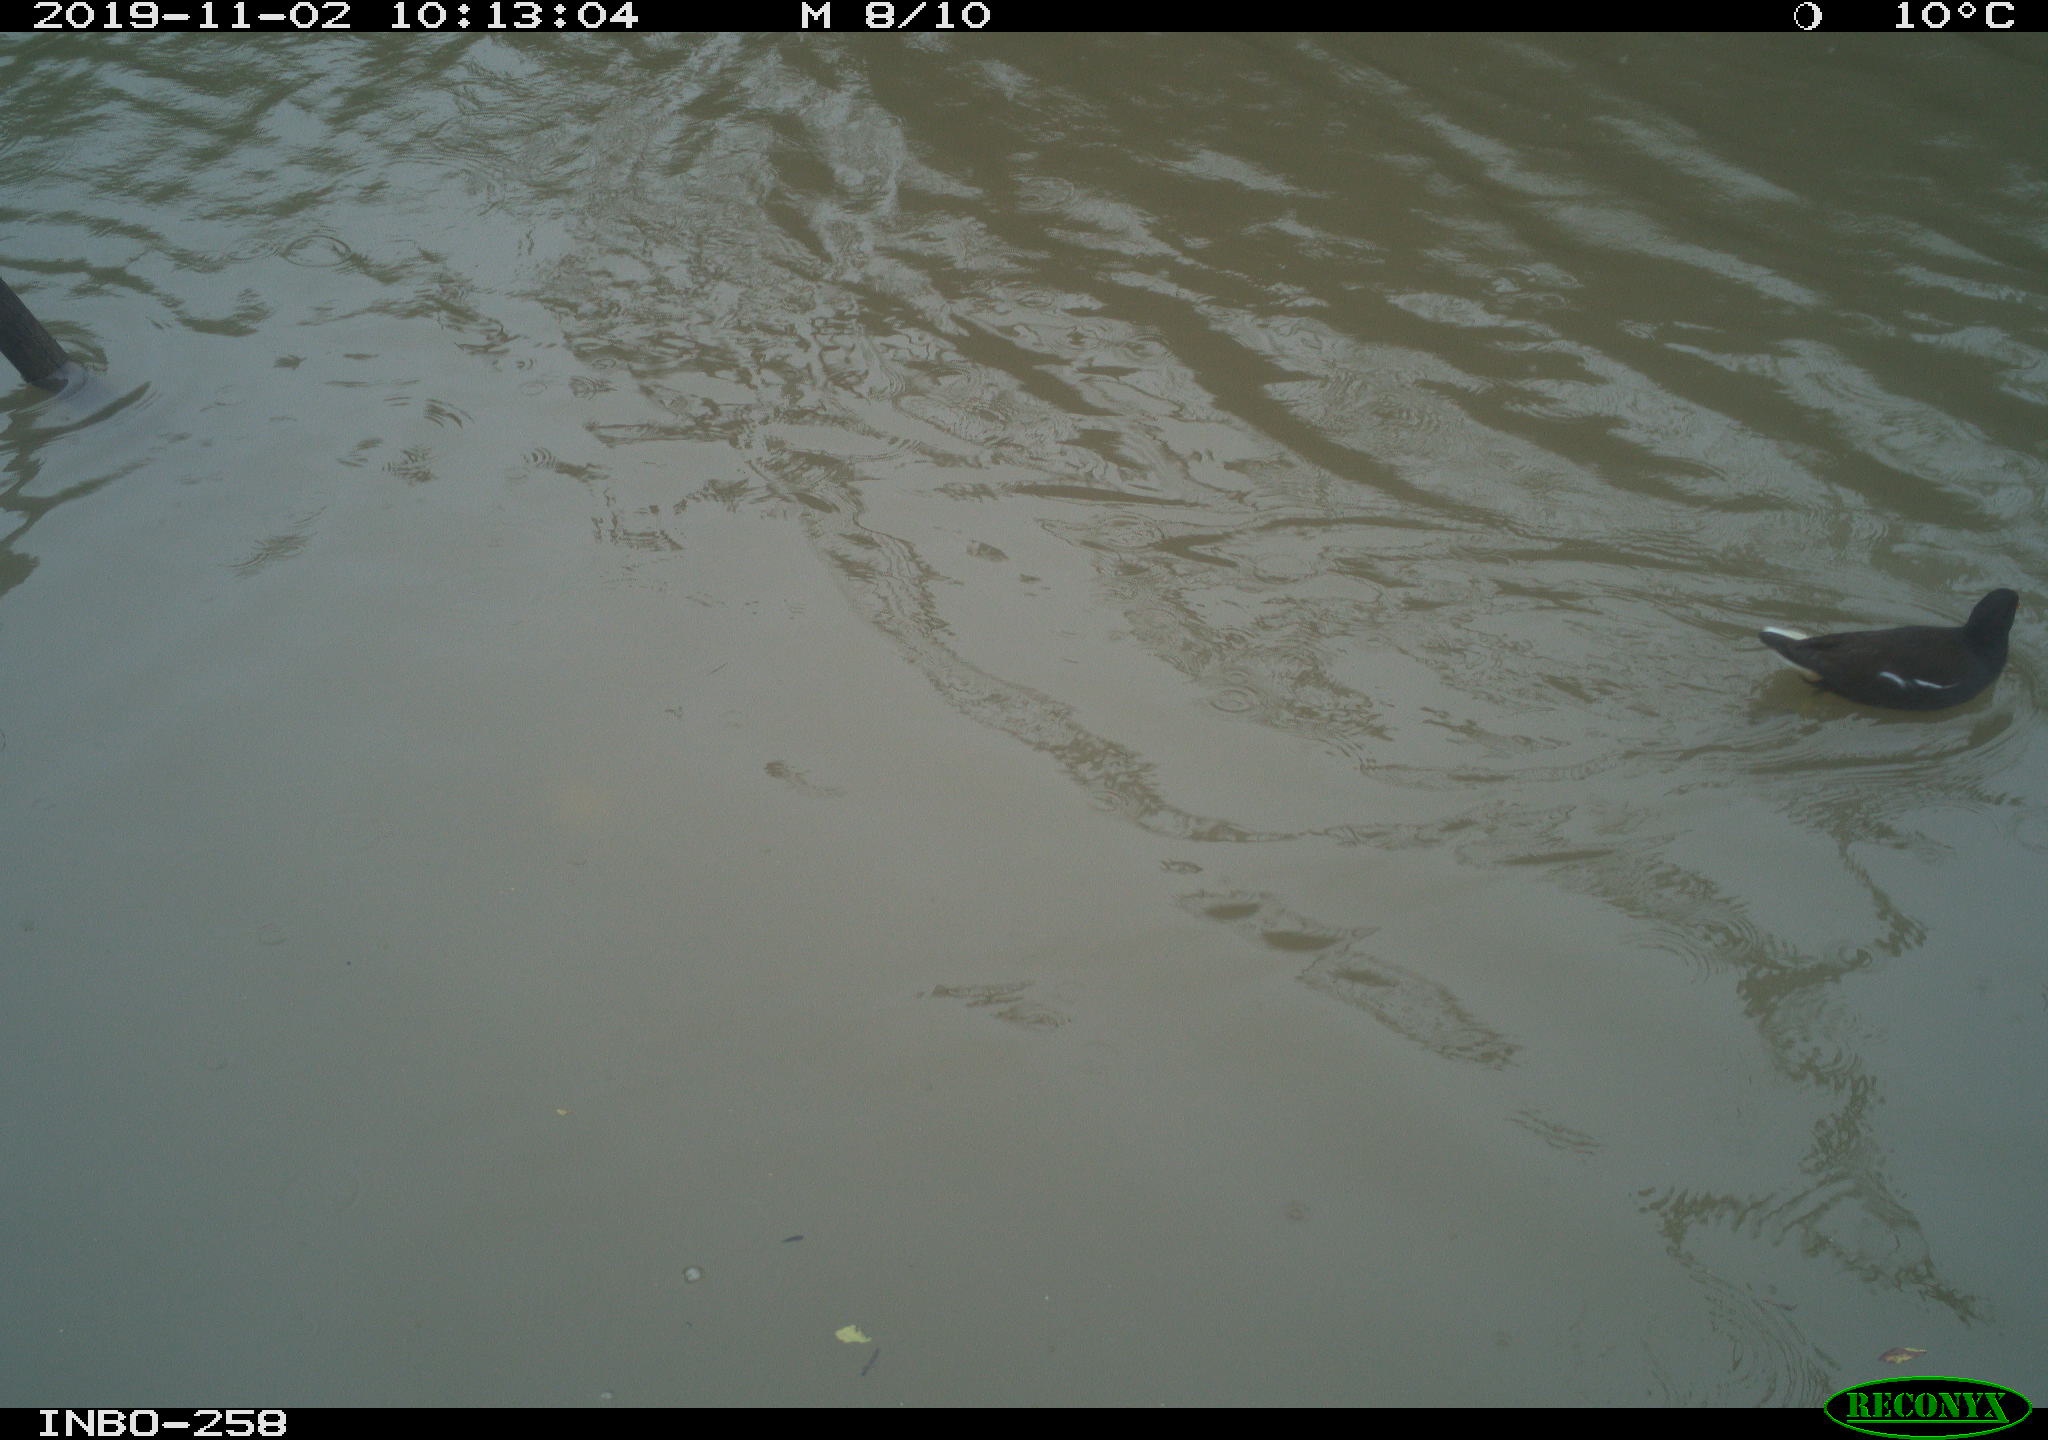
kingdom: Animalia
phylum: Chordata
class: Aves
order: Gruiformes
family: Rallidae
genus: Gallinula
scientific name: Gallinula chloropus
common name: Common moorhen
